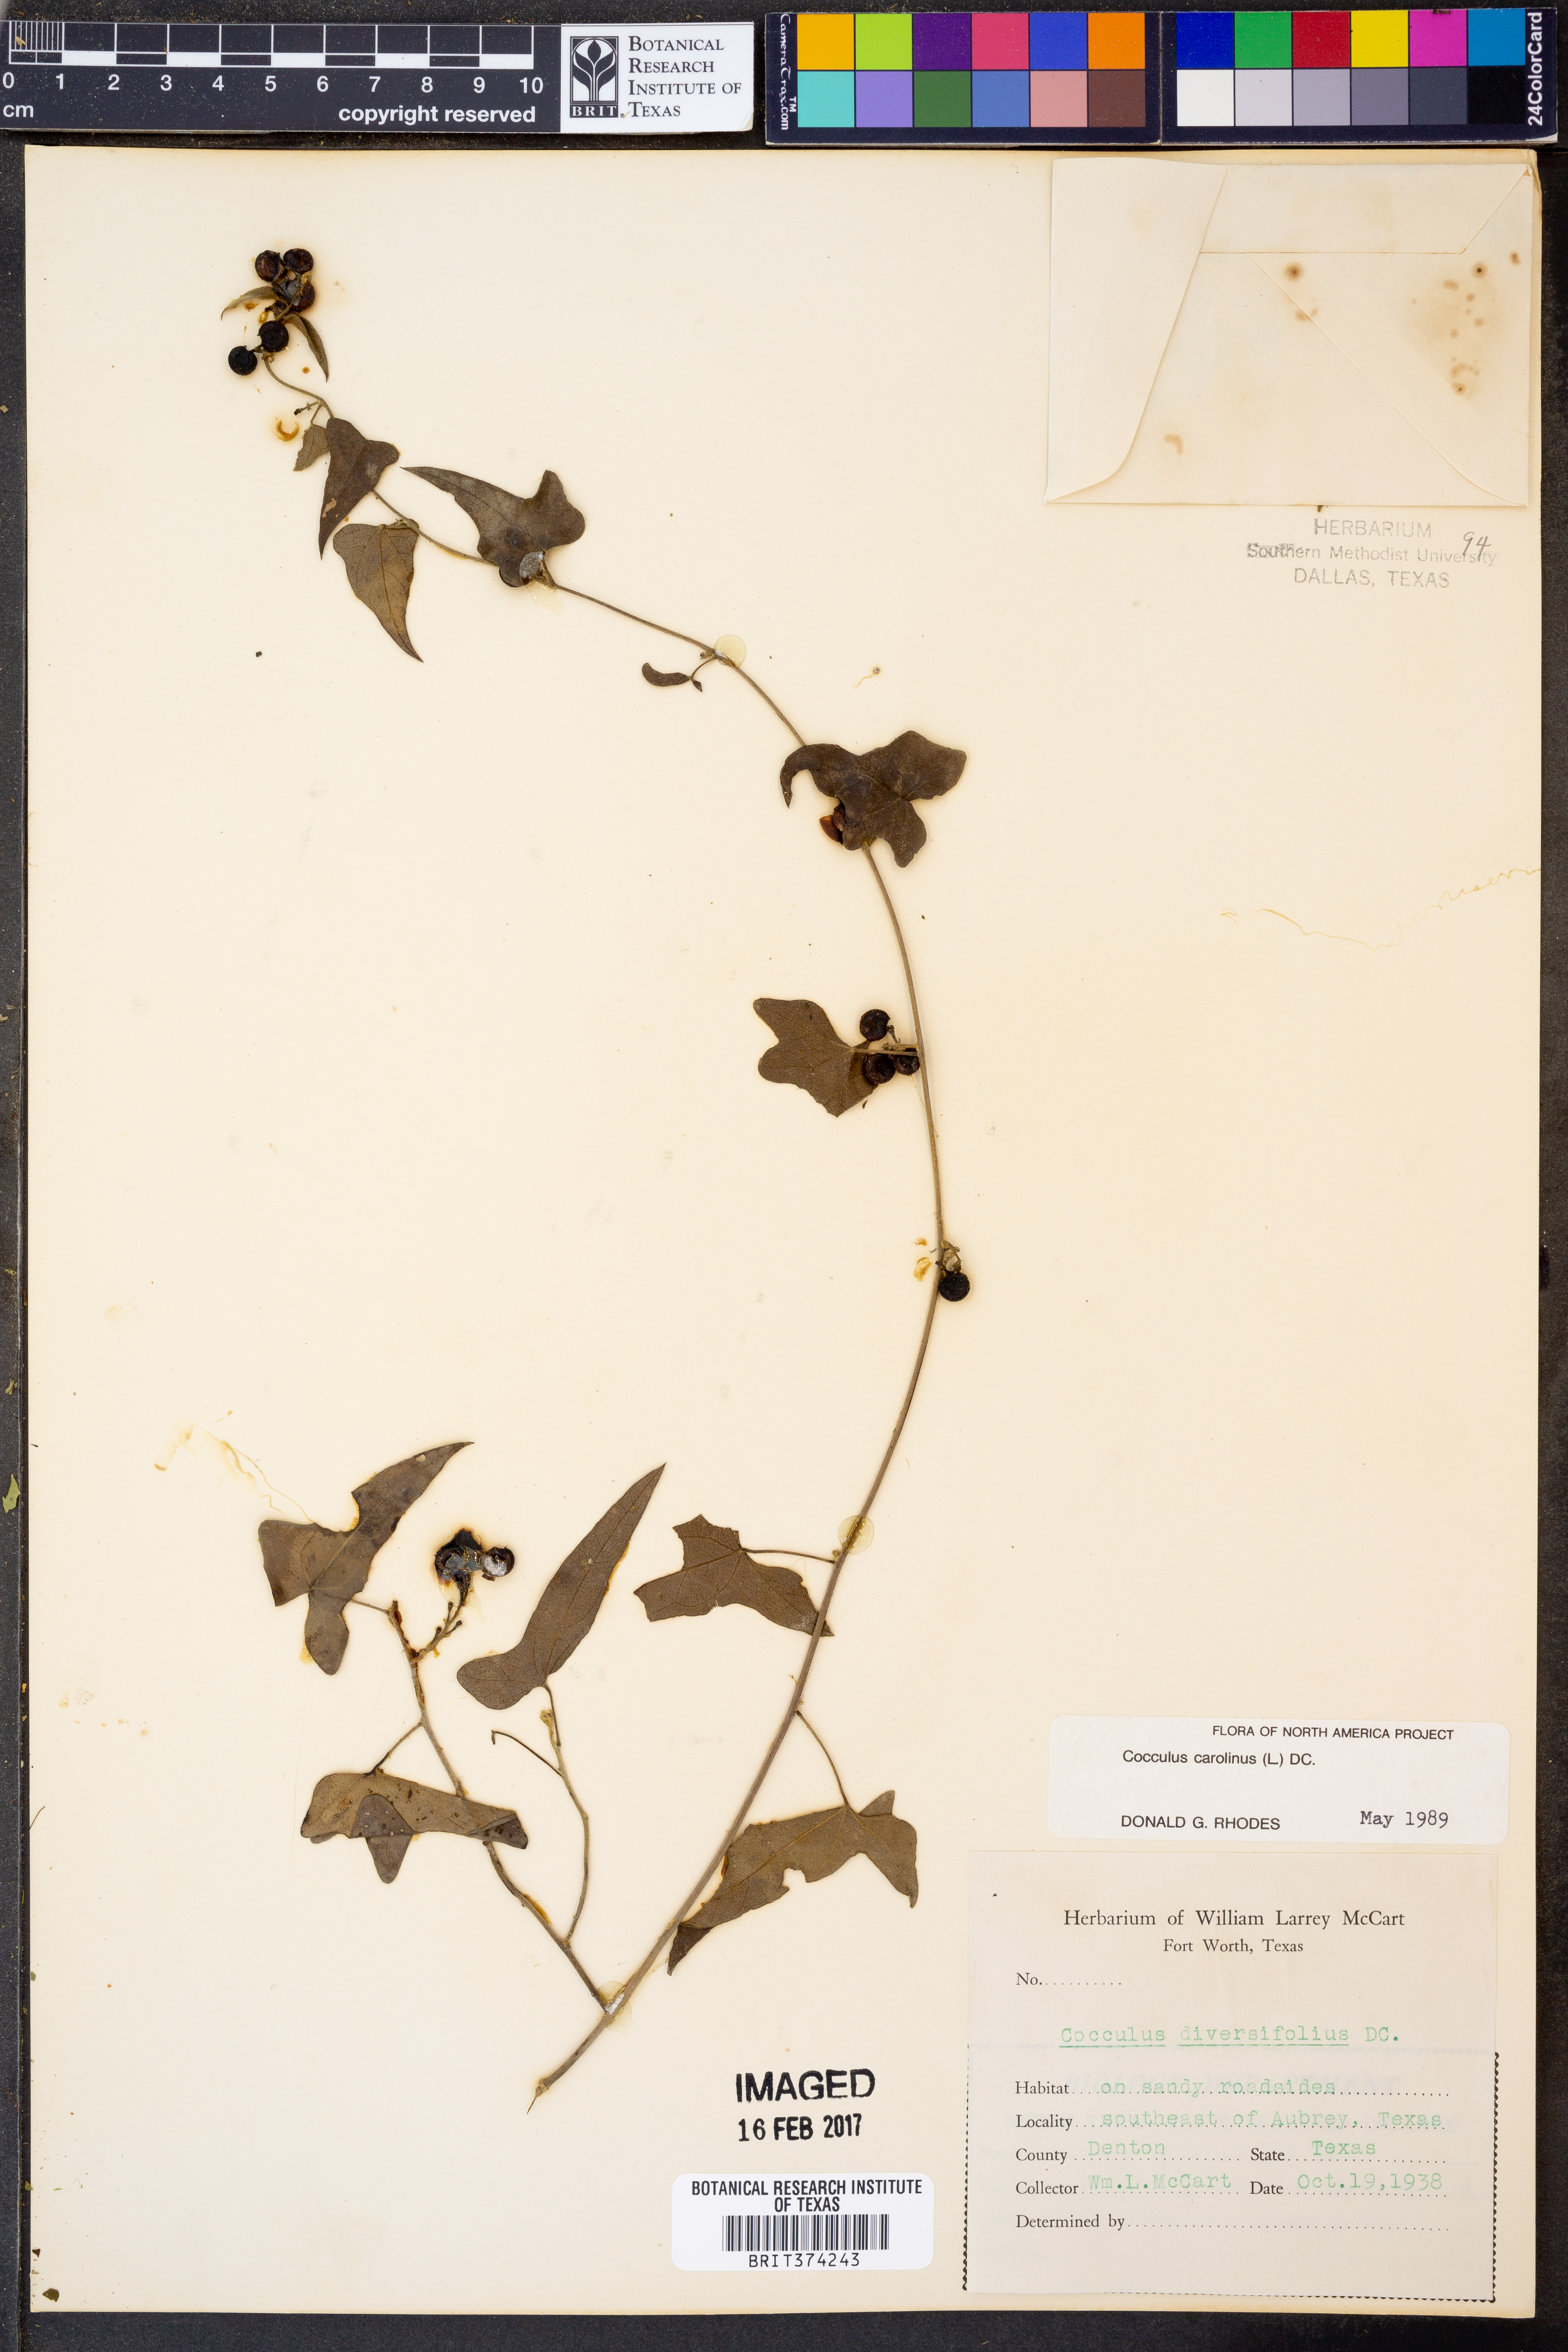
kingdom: Plantae
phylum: Tracheophyta
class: Magnoliopsida
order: Ranunculales
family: Menispermaceae
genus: Cocculus
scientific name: Cocculus carolinus
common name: Carolina moonseed
